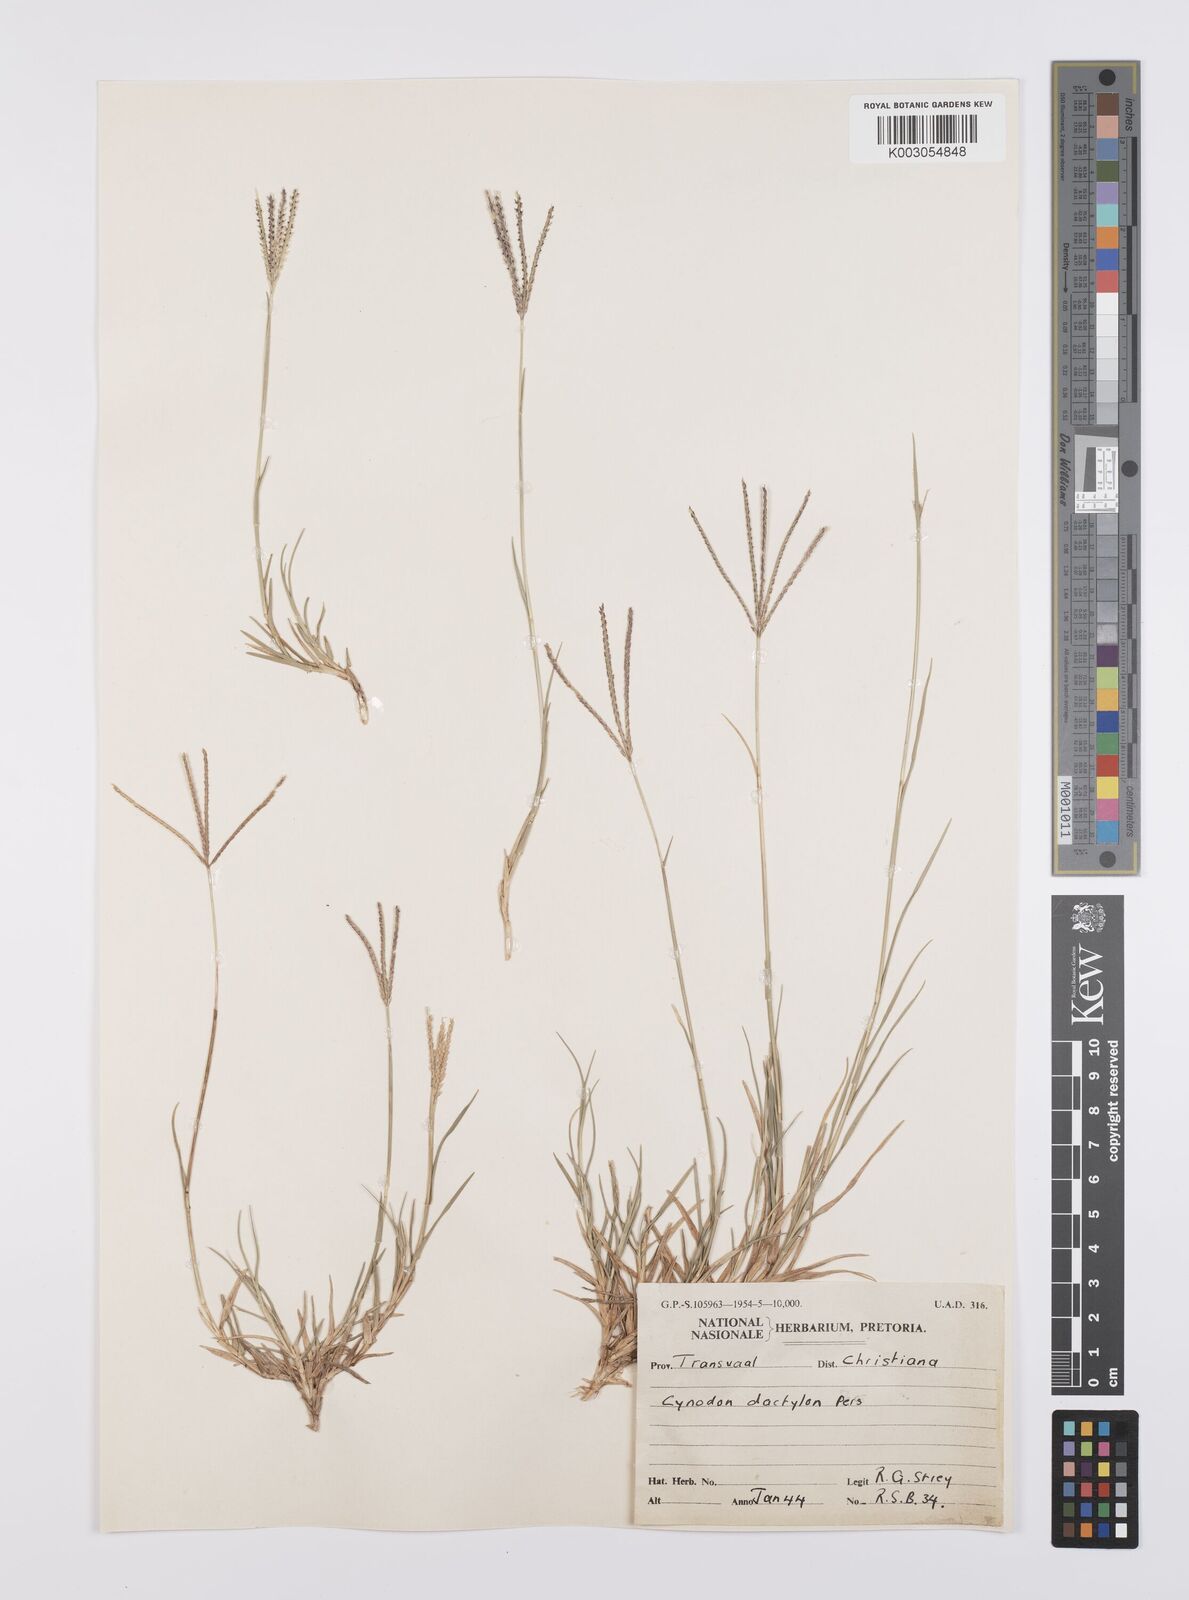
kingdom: Plantae
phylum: Tracheophyta
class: Liliopsida
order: Poales
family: Poaceae
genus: Cynodon
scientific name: Cynodon dactylon
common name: Bermuda grass
